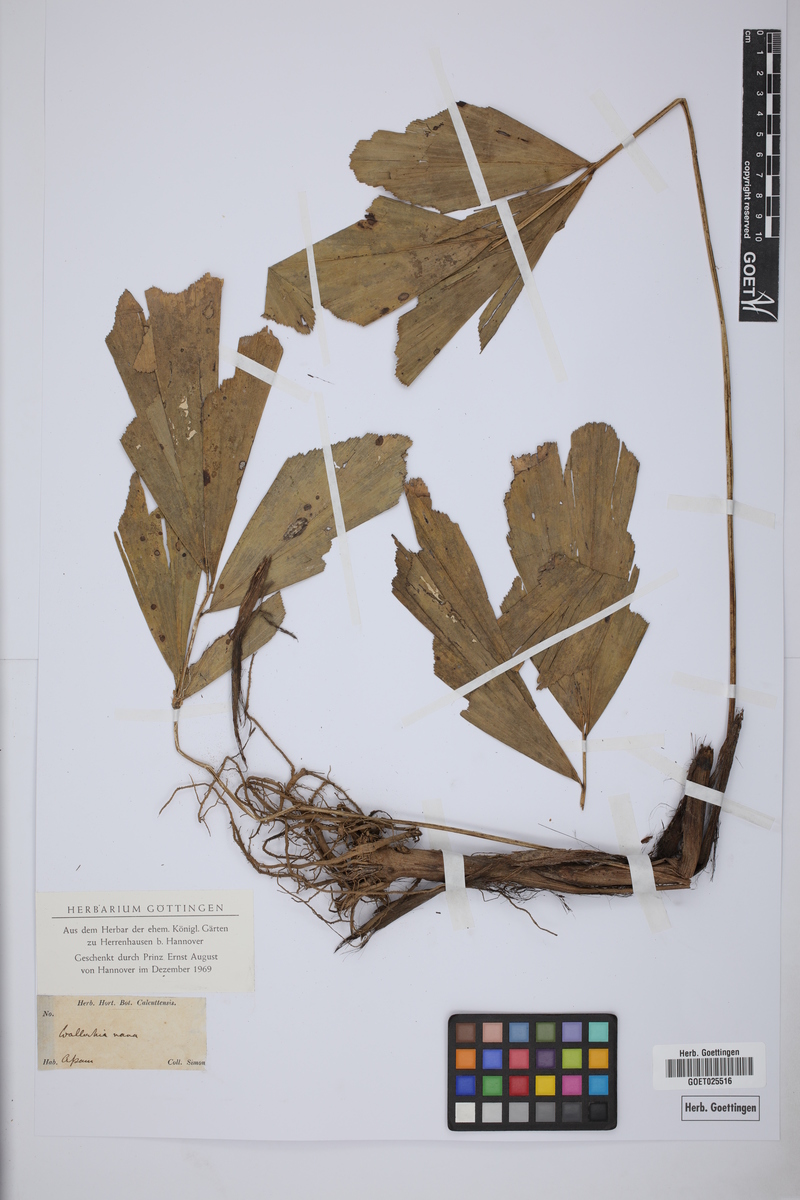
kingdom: Plantae
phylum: Tracheophyta
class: Liliopsida
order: Arecales
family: Arecaceae
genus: Wallichia
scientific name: Wallichia nana
